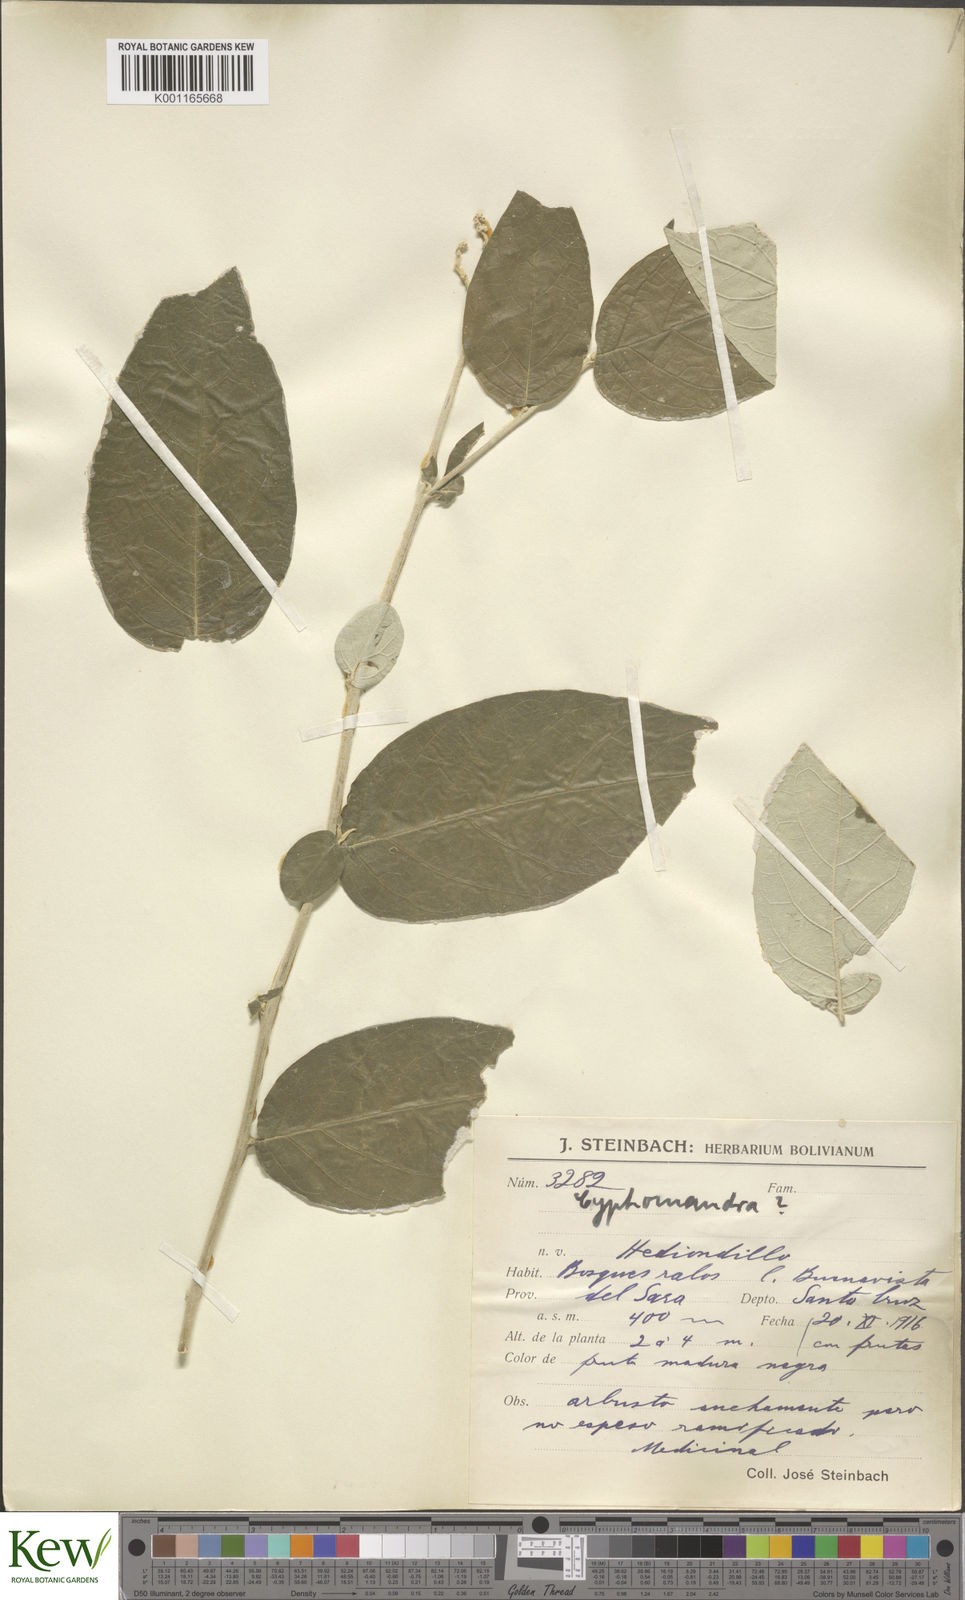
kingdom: Plantae
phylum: Tracheophyta
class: Magnoliopsida
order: Solanales
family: Solanaceae
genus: Solanum
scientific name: Solanum
